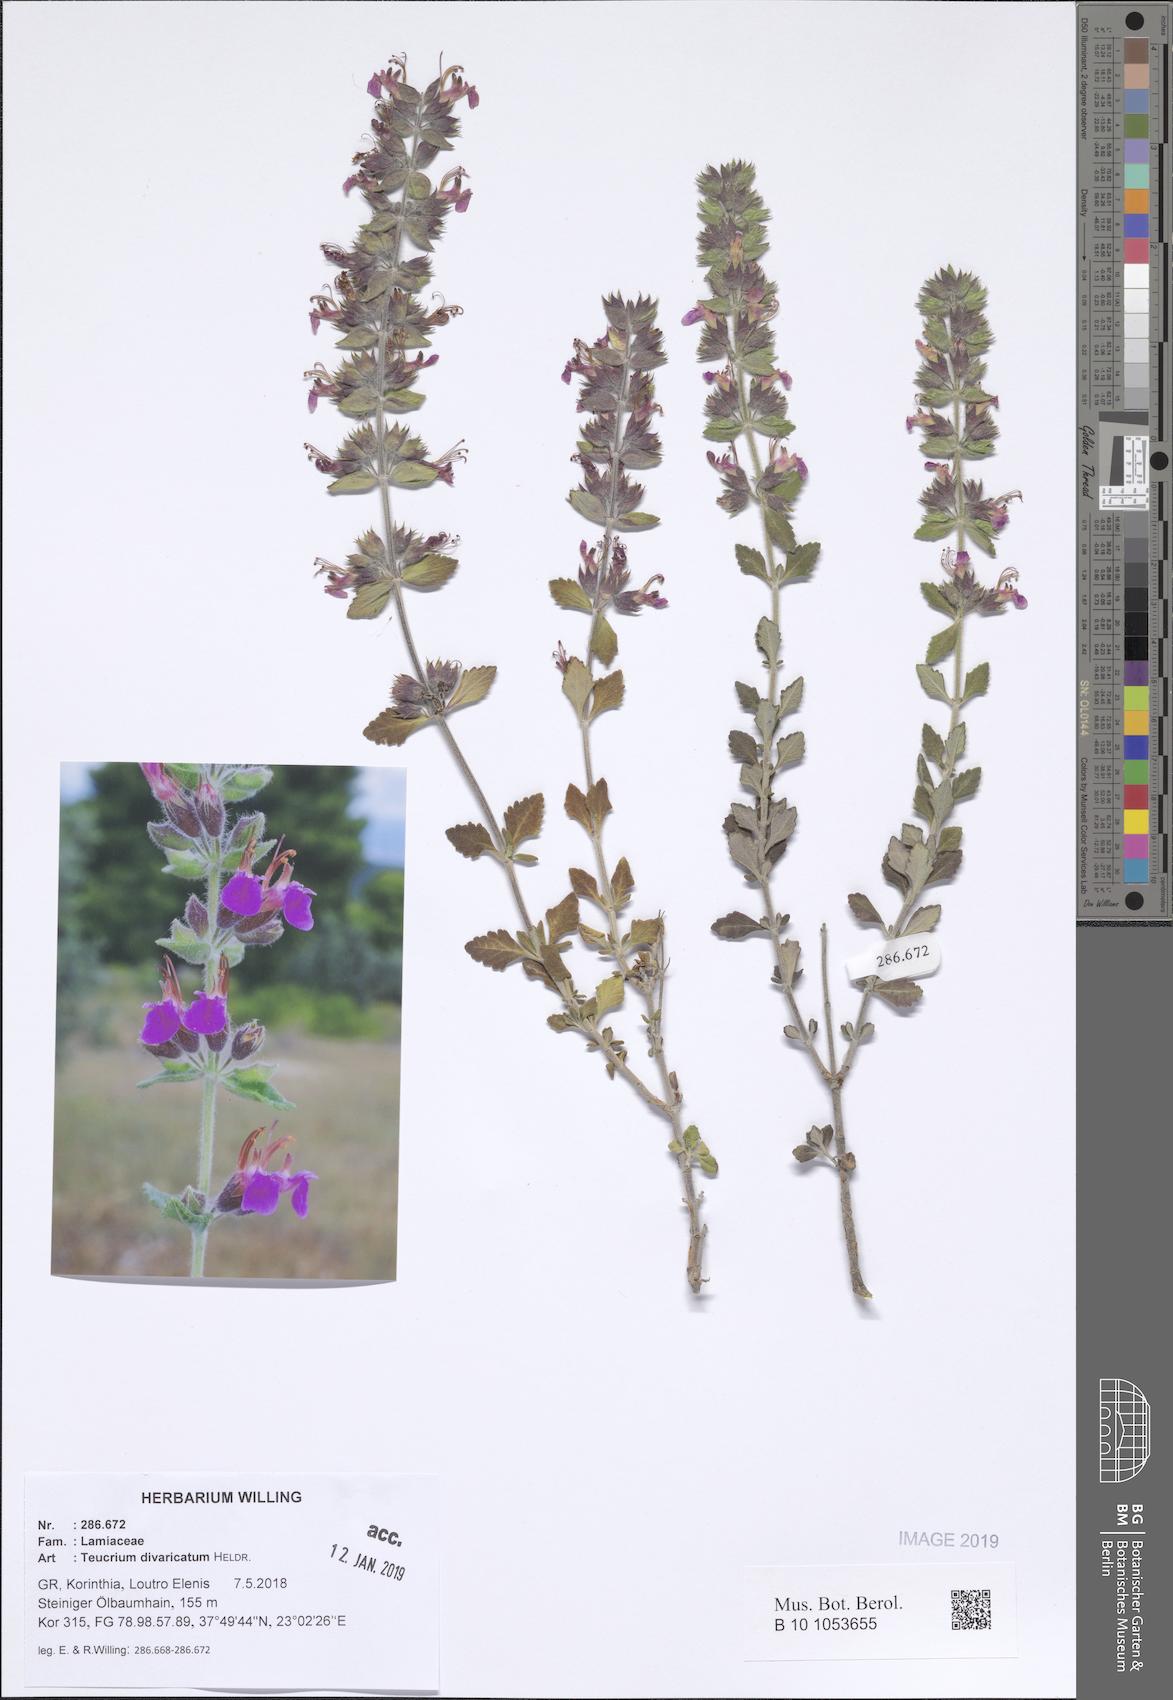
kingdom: Plantae
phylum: Tracheophyta
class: Magnoliopsida
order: Lamiales
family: Lamiaceae
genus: Teucrium
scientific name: Teucrium divaricatum
